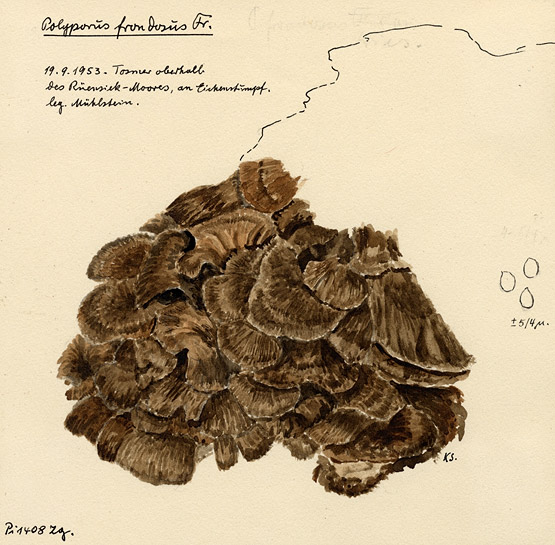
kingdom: Plantae
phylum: Tracheophyta
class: Magnoliopsida
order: Fagales
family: Fagaceae
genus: Quercus
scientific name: Quercus
